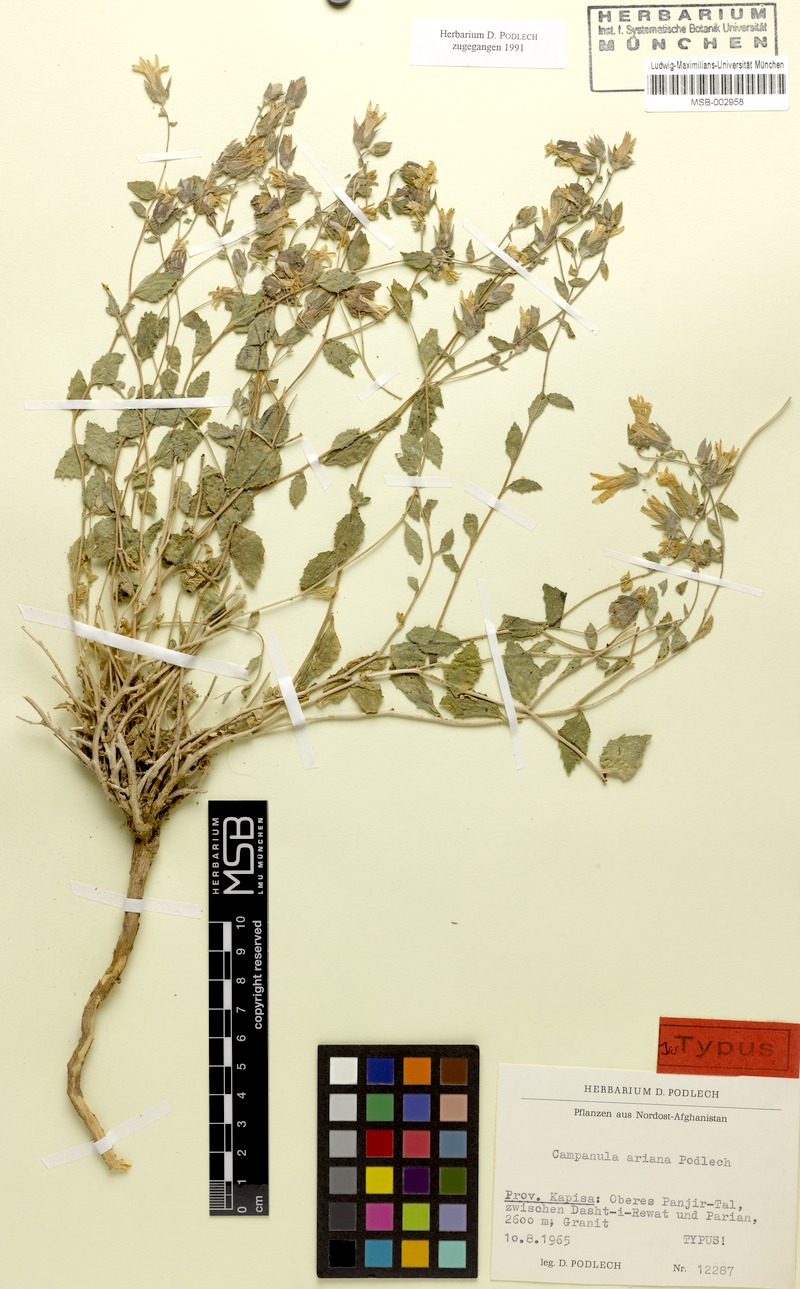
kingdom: Plantae
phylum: Tracheophyta
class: Magnoliopsida
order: Asterales
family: Campanulaceae
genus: Campanula
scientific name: Campanula ariana
